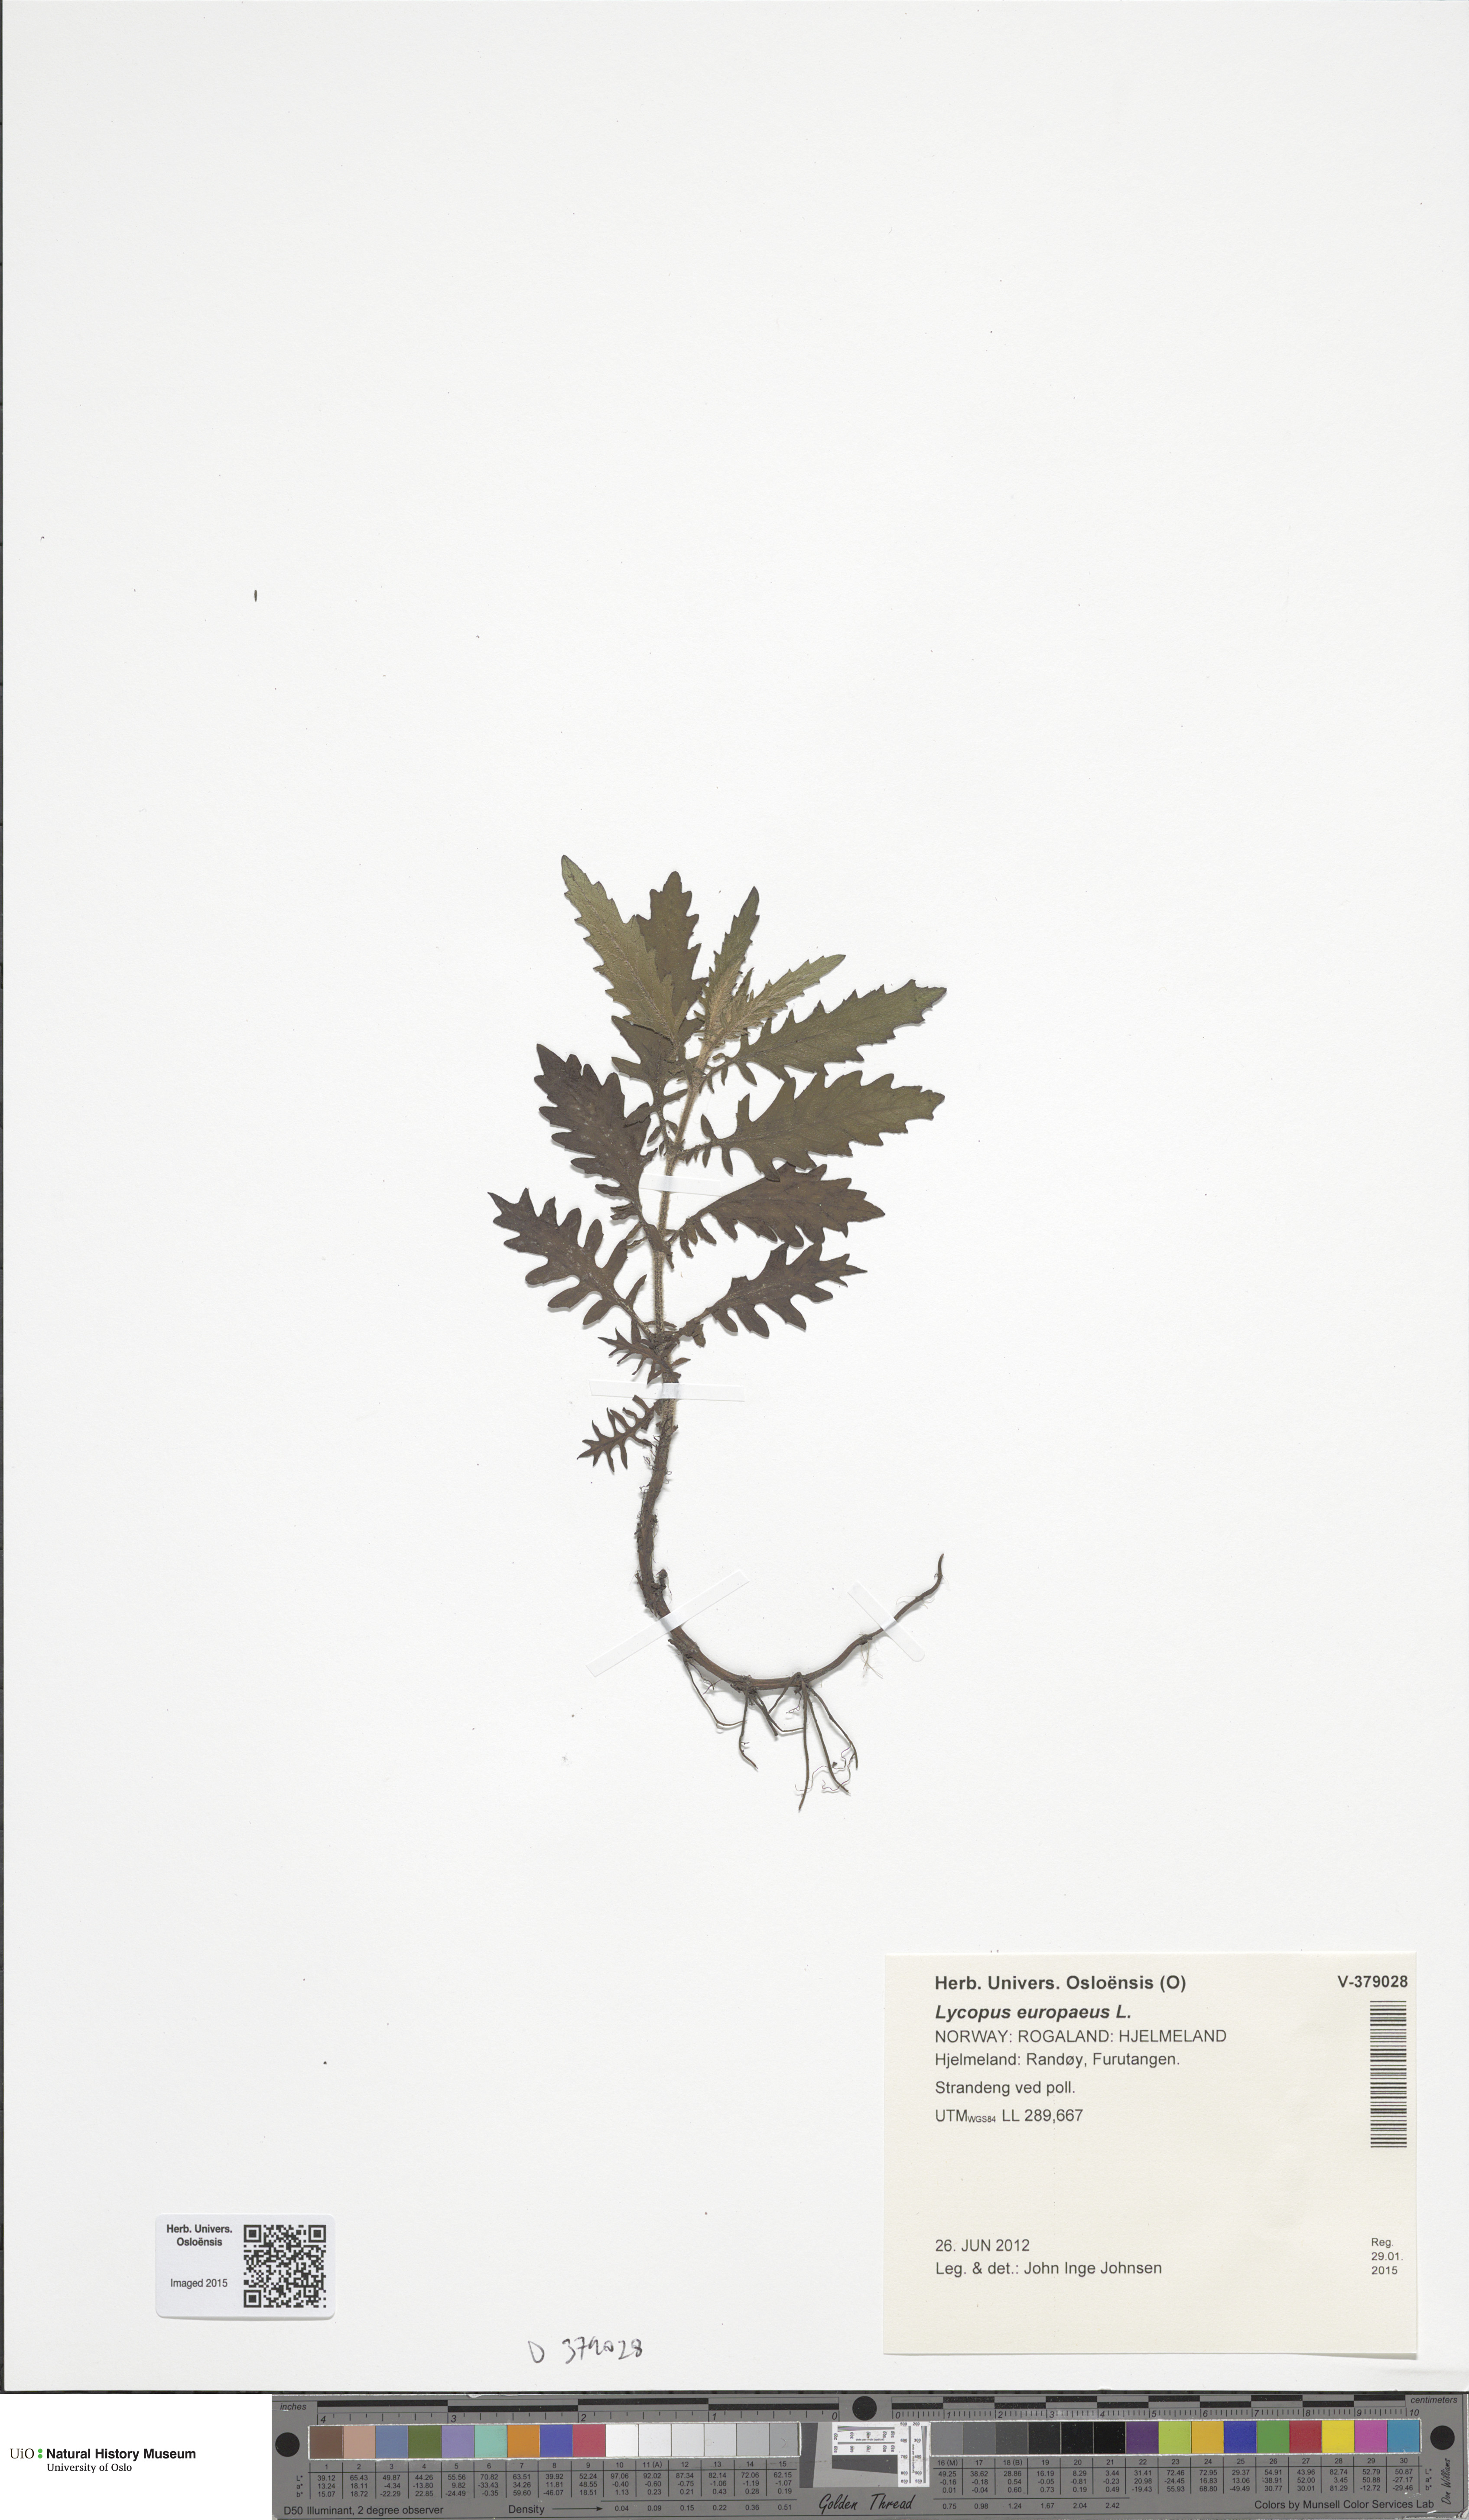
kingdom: Plantae
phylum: Tracheophyta
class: Magnoliopsida
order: Lamiales
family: Lamiaceae
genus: Lycopus
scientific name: Lycopus europaeus
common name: European bugleweed
